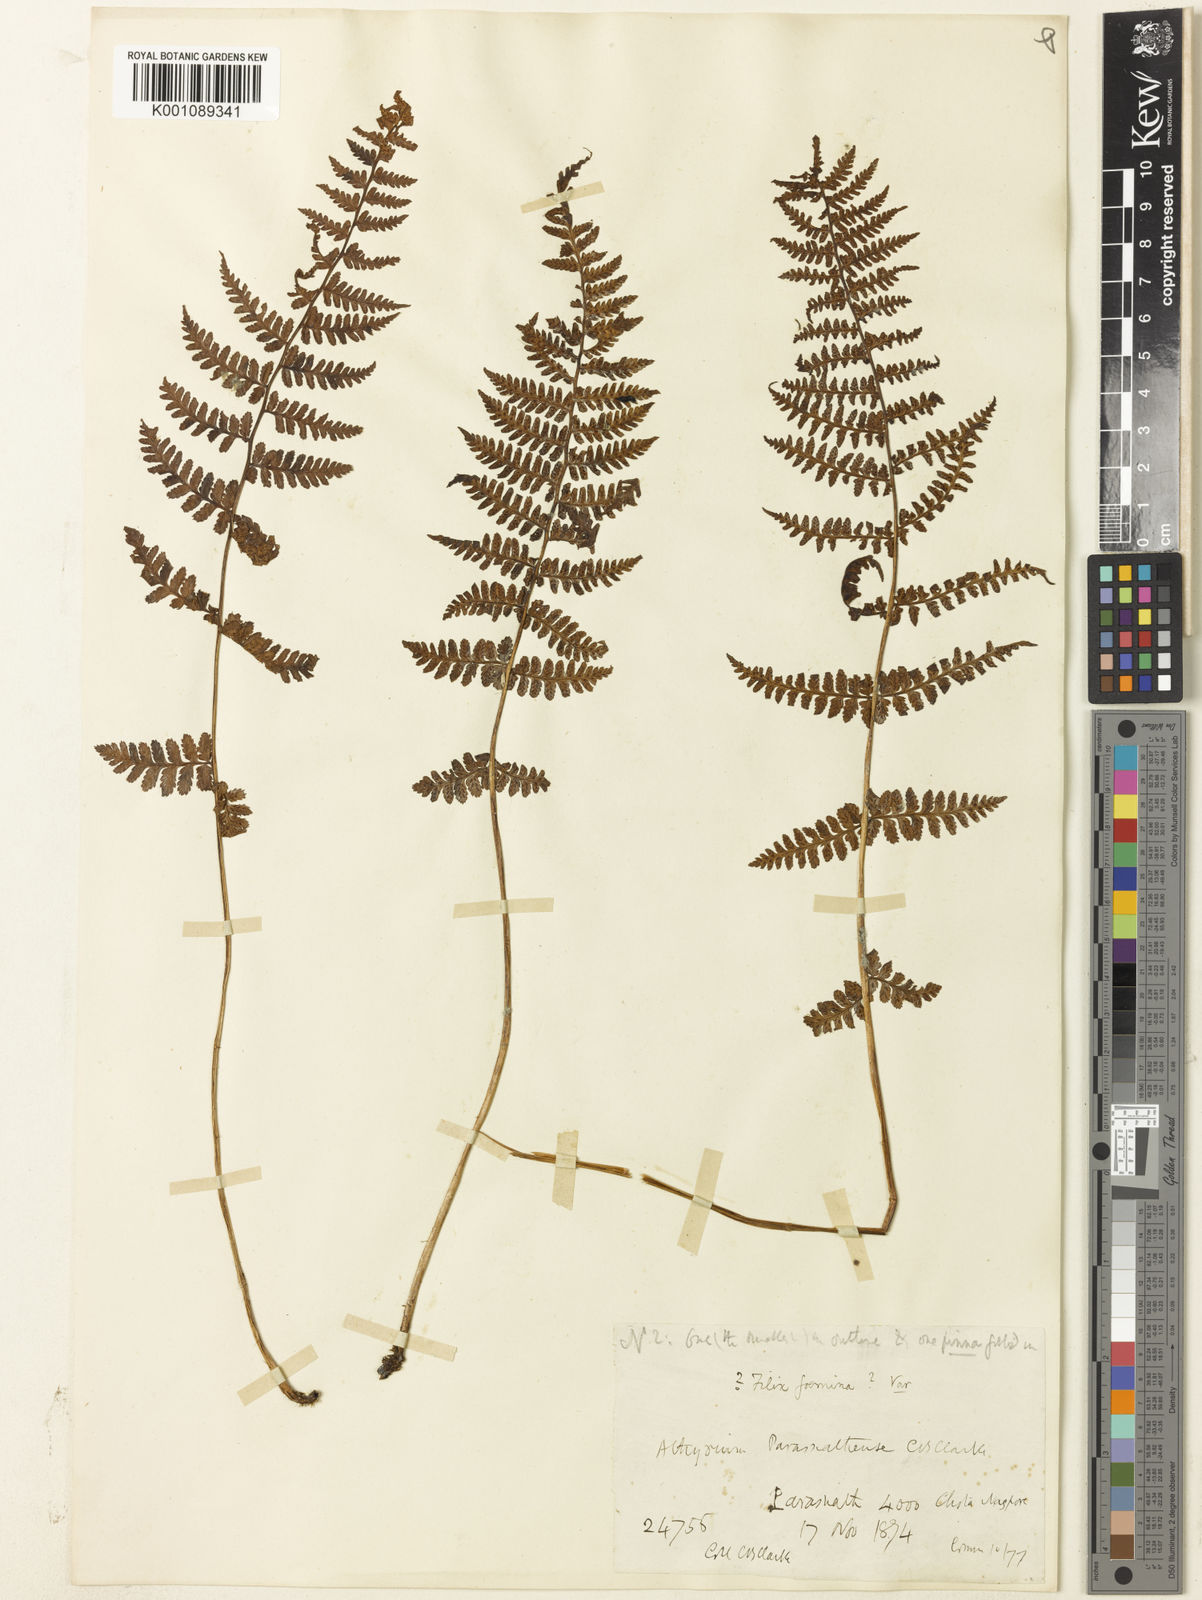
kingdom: Plantae
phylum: Tracheophyta
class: Polypodiopsida
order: Polypodiales
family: Athyriaceae
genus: Athyrium
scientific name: Athyrium filix-femina
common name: Lady fern
